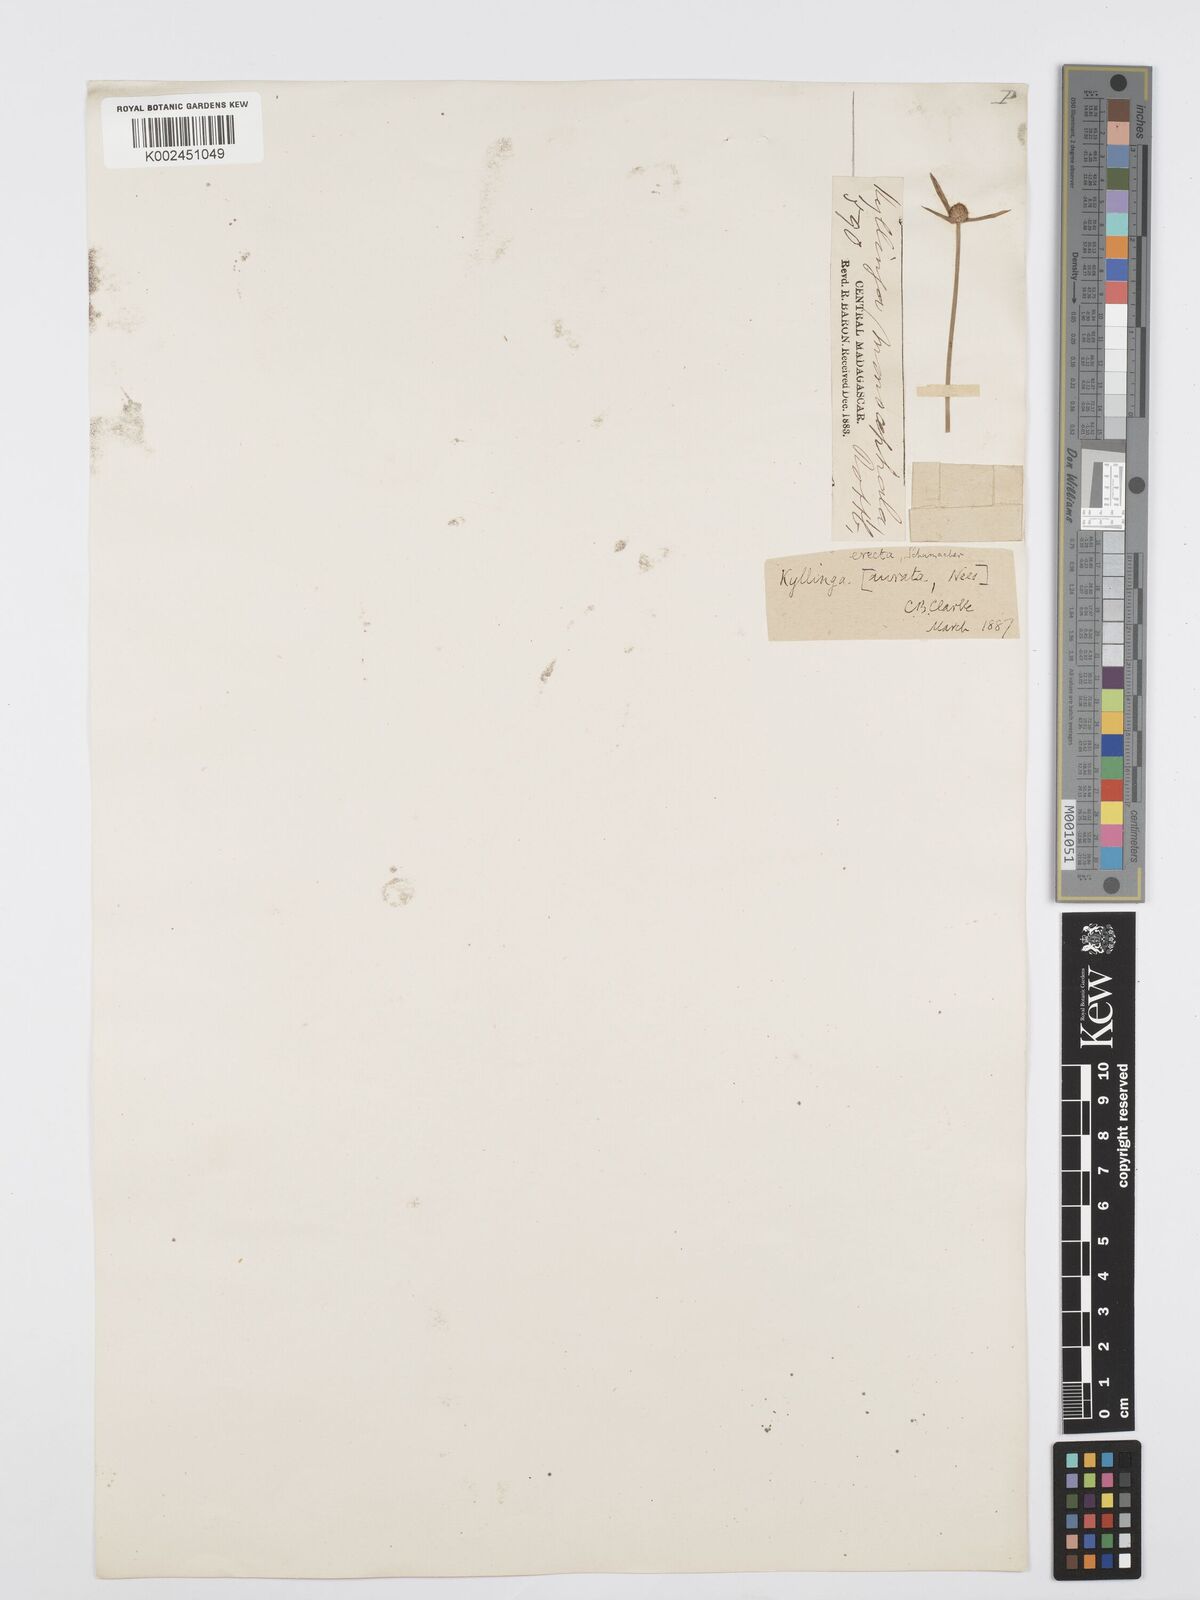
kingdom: Plantae
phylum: Tracheophyta
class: Liliopsida
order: Poales
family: Cyperaceae
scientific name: Cyperaceae
